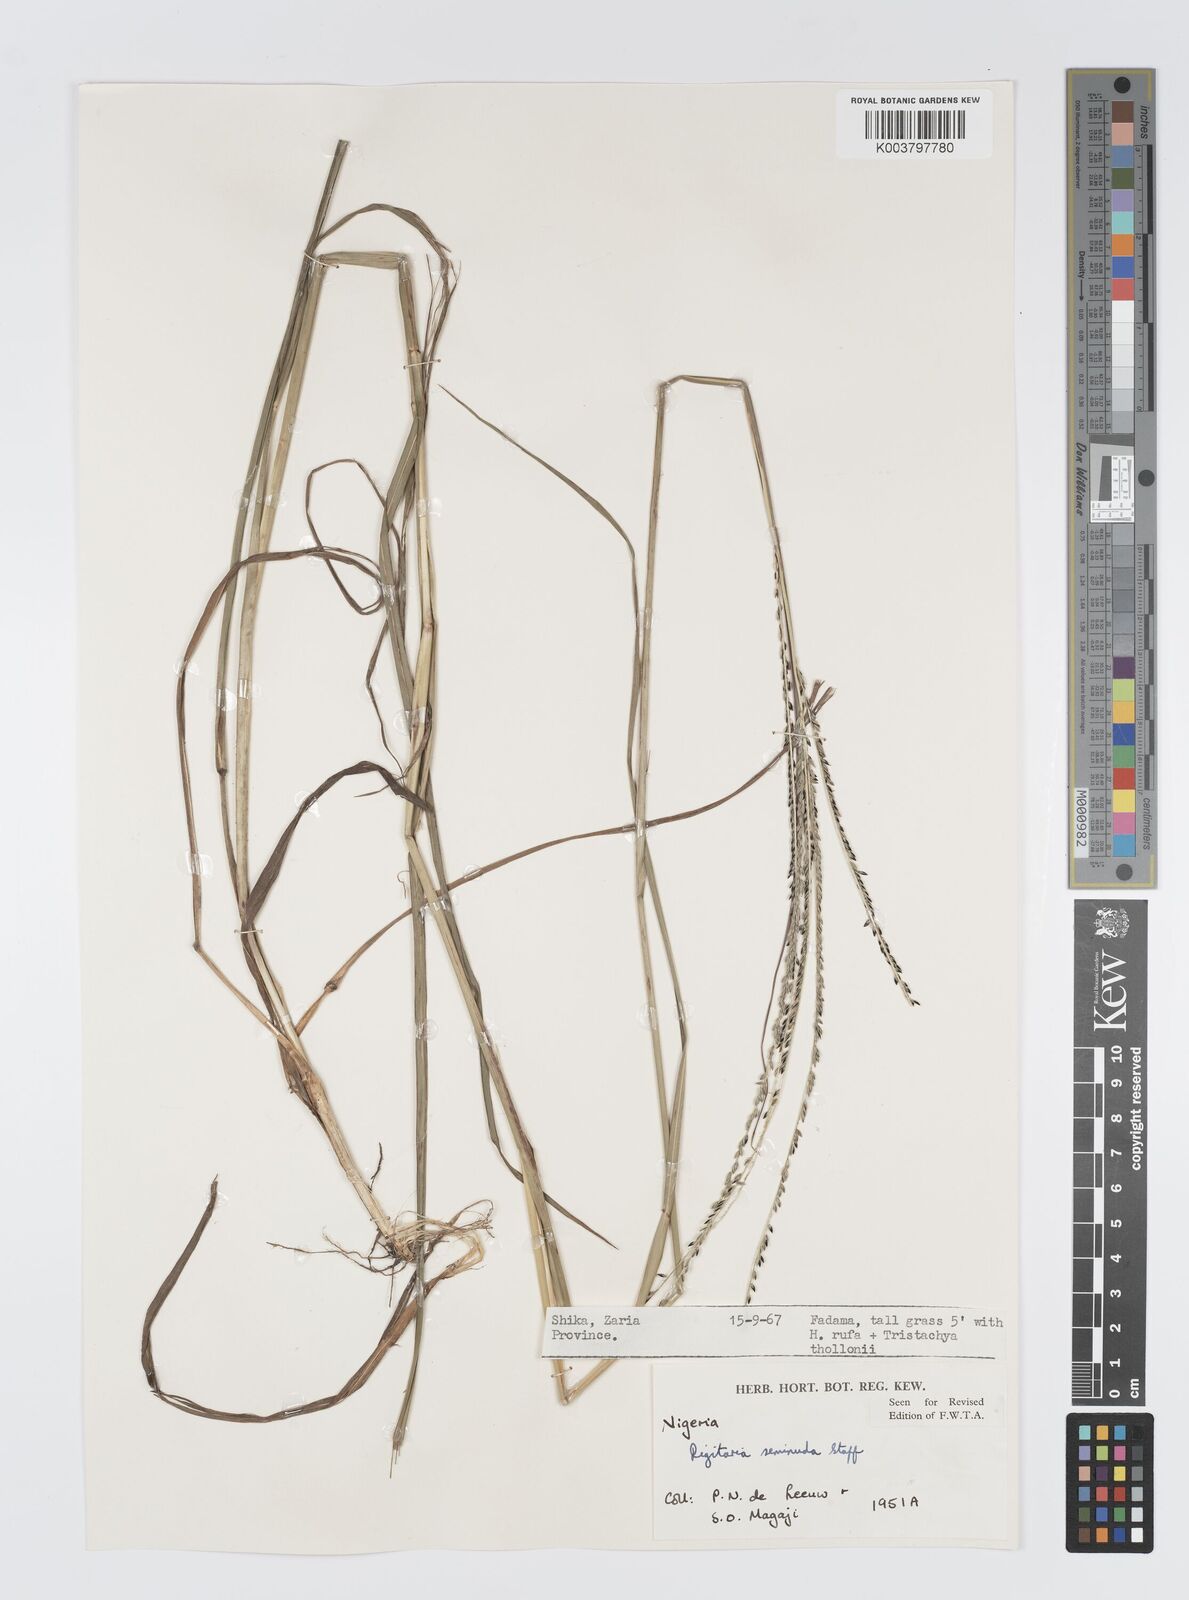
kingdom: Plantae
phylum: Tracheophyta
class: Liliopsida
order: Poales
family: Poaceae
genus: Digitaria
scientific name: Digitaria atrofusca
